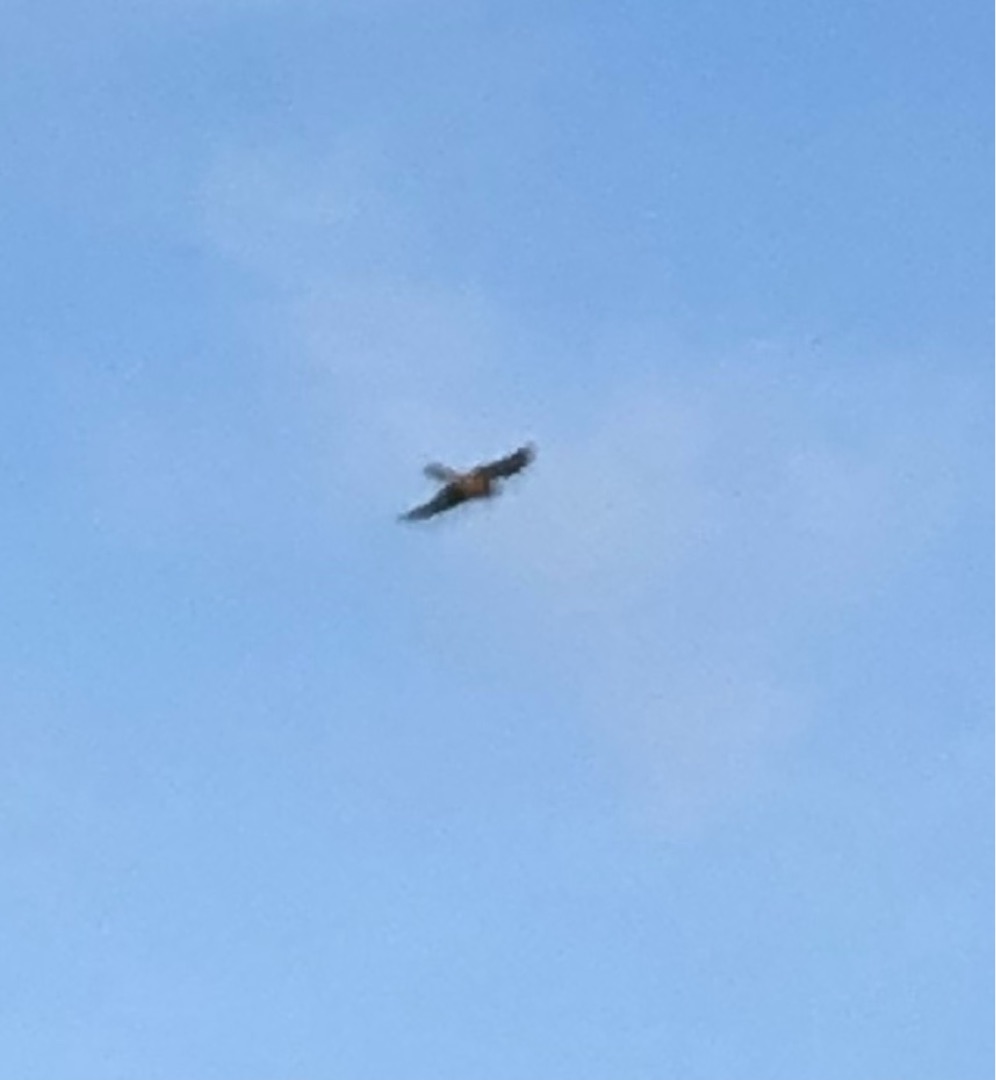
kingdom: Animalia
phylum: Chordata
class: Aves
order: Falconiformes
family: Falconidae
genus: Falco
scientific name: Falco tinnunculus
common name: Tårnfalk
